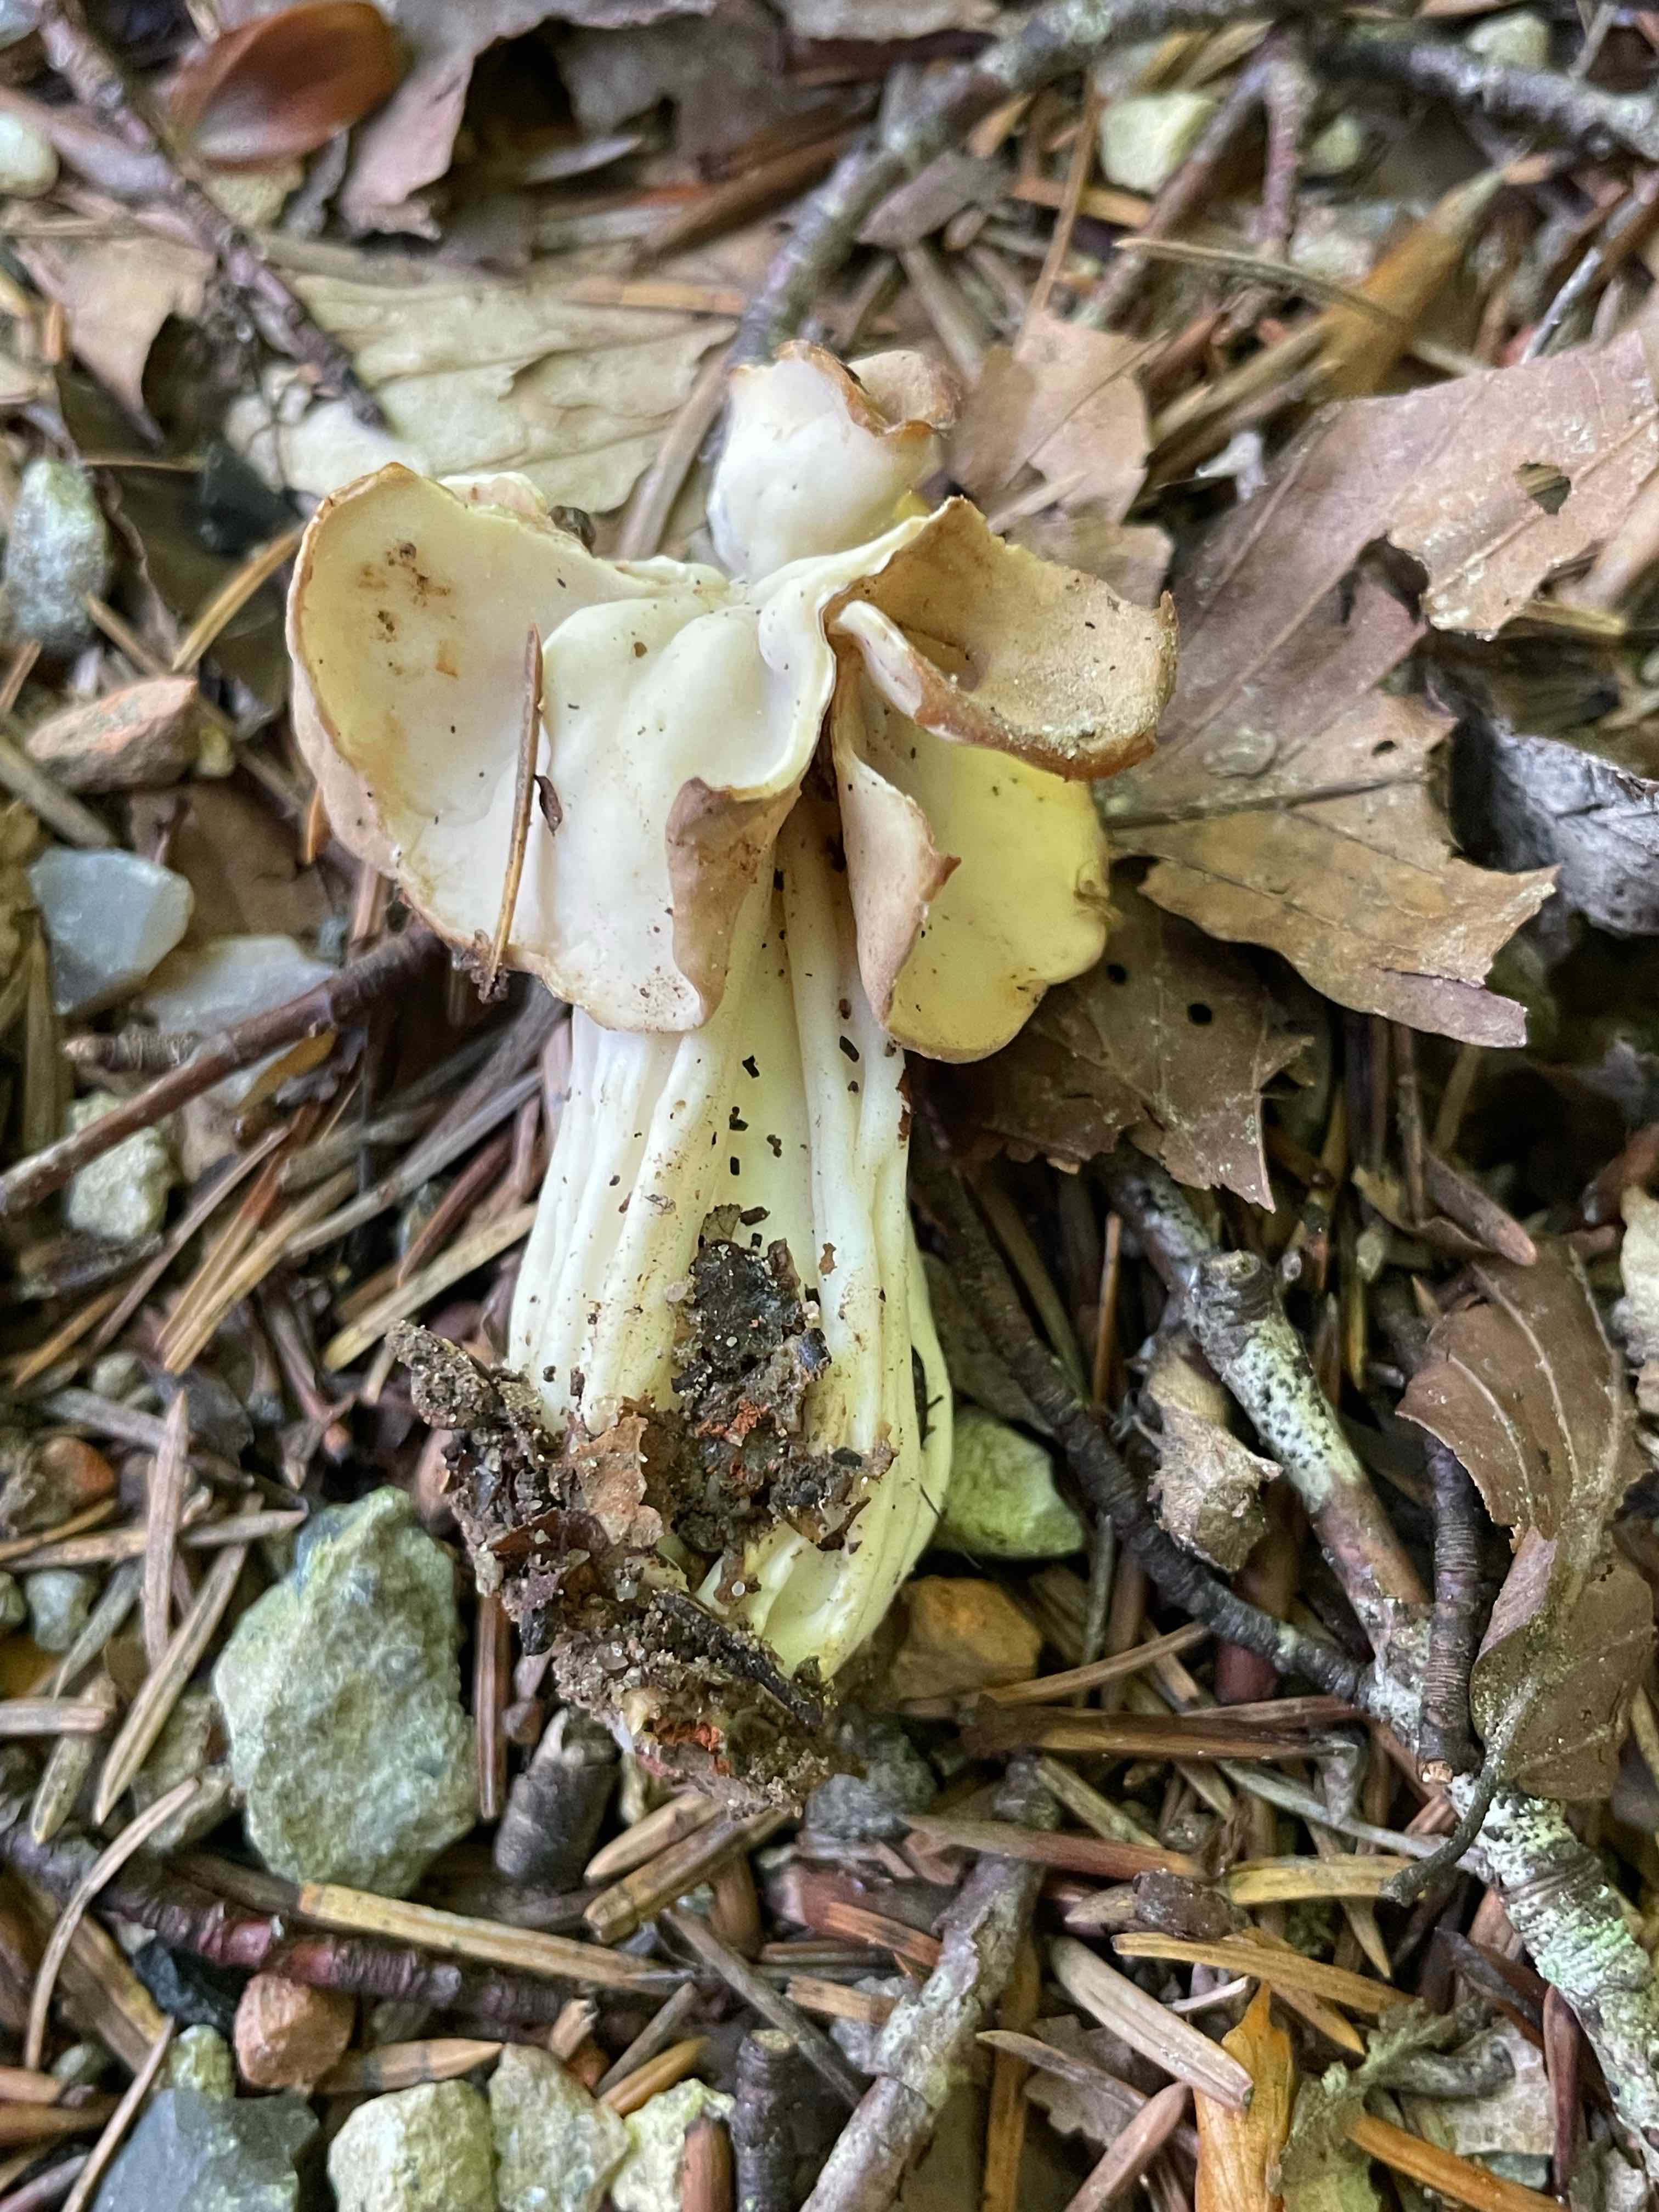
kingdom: Fungi
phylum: Ascomycota
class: Pezizomycetes
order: Pezizales
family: Helvellaceae
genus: Helvella
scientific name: Helvella crispa
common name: kruset foldhat
